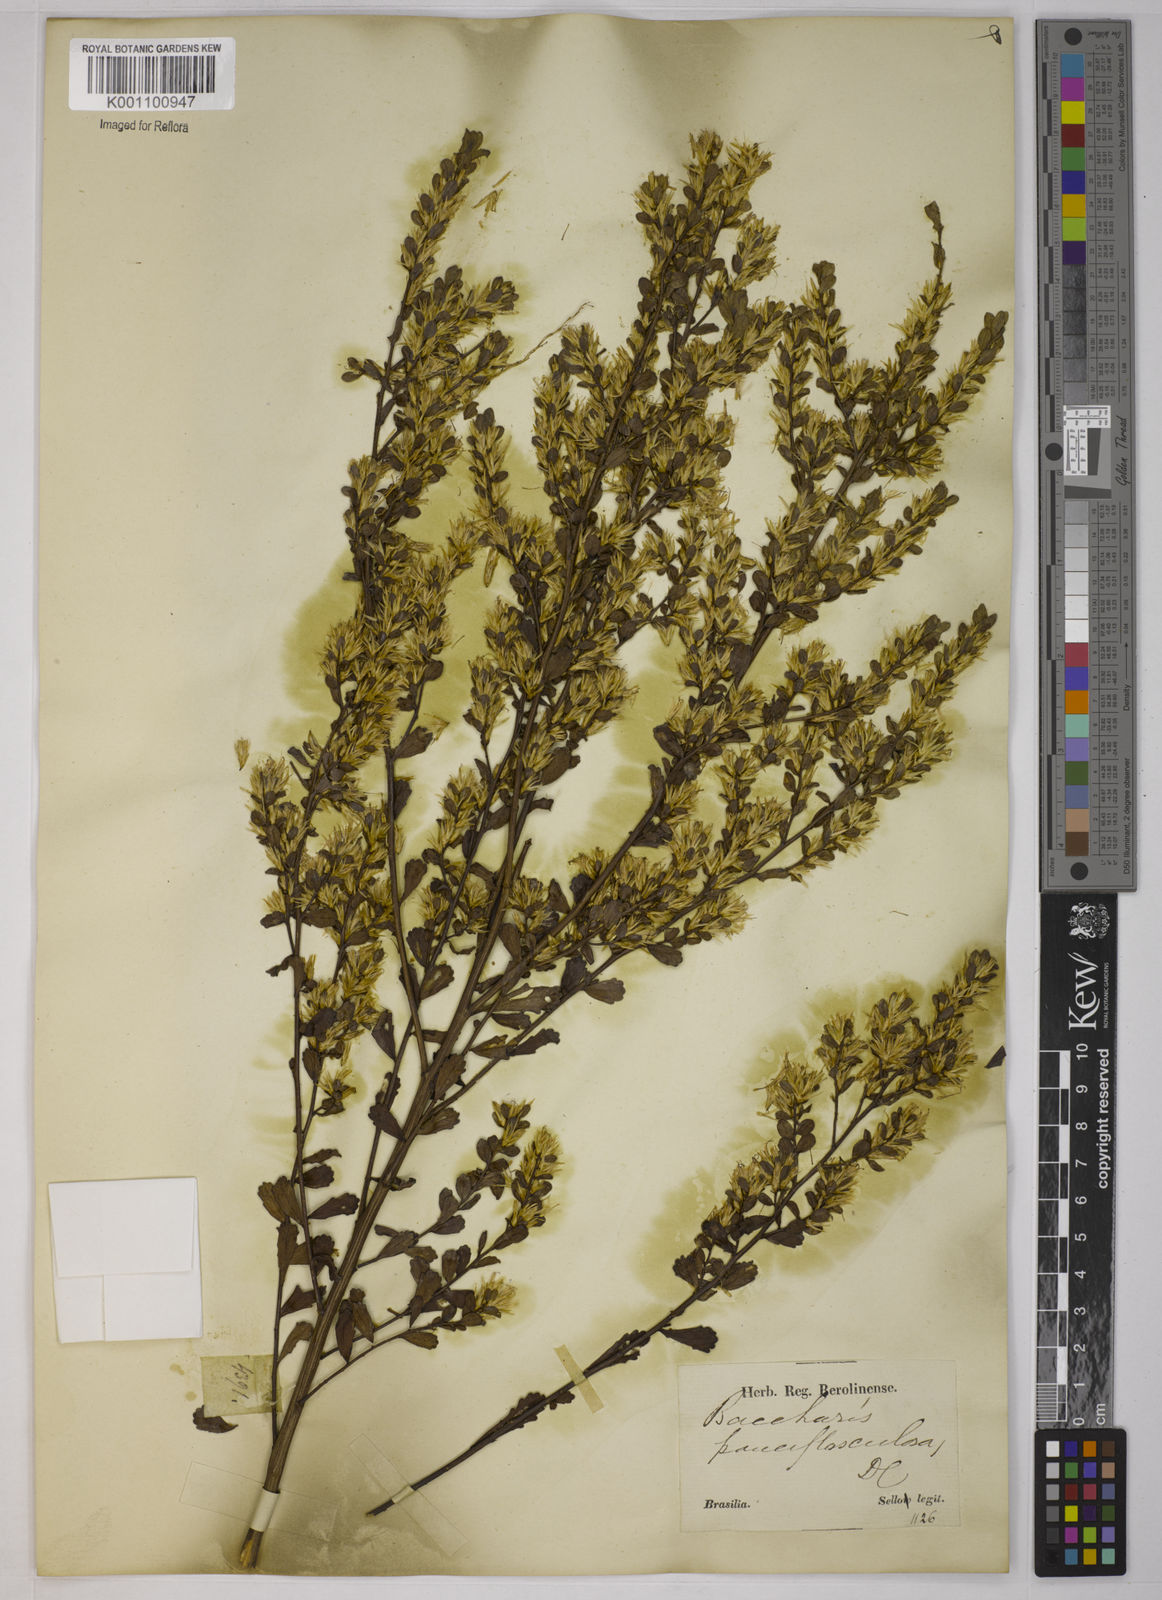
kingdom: Plantae
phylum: Tracheophyta
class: Magnoliopsida
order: Asterales
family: Asteraceae
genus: Baccharis
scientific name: Baccharis pauciflosculosa
